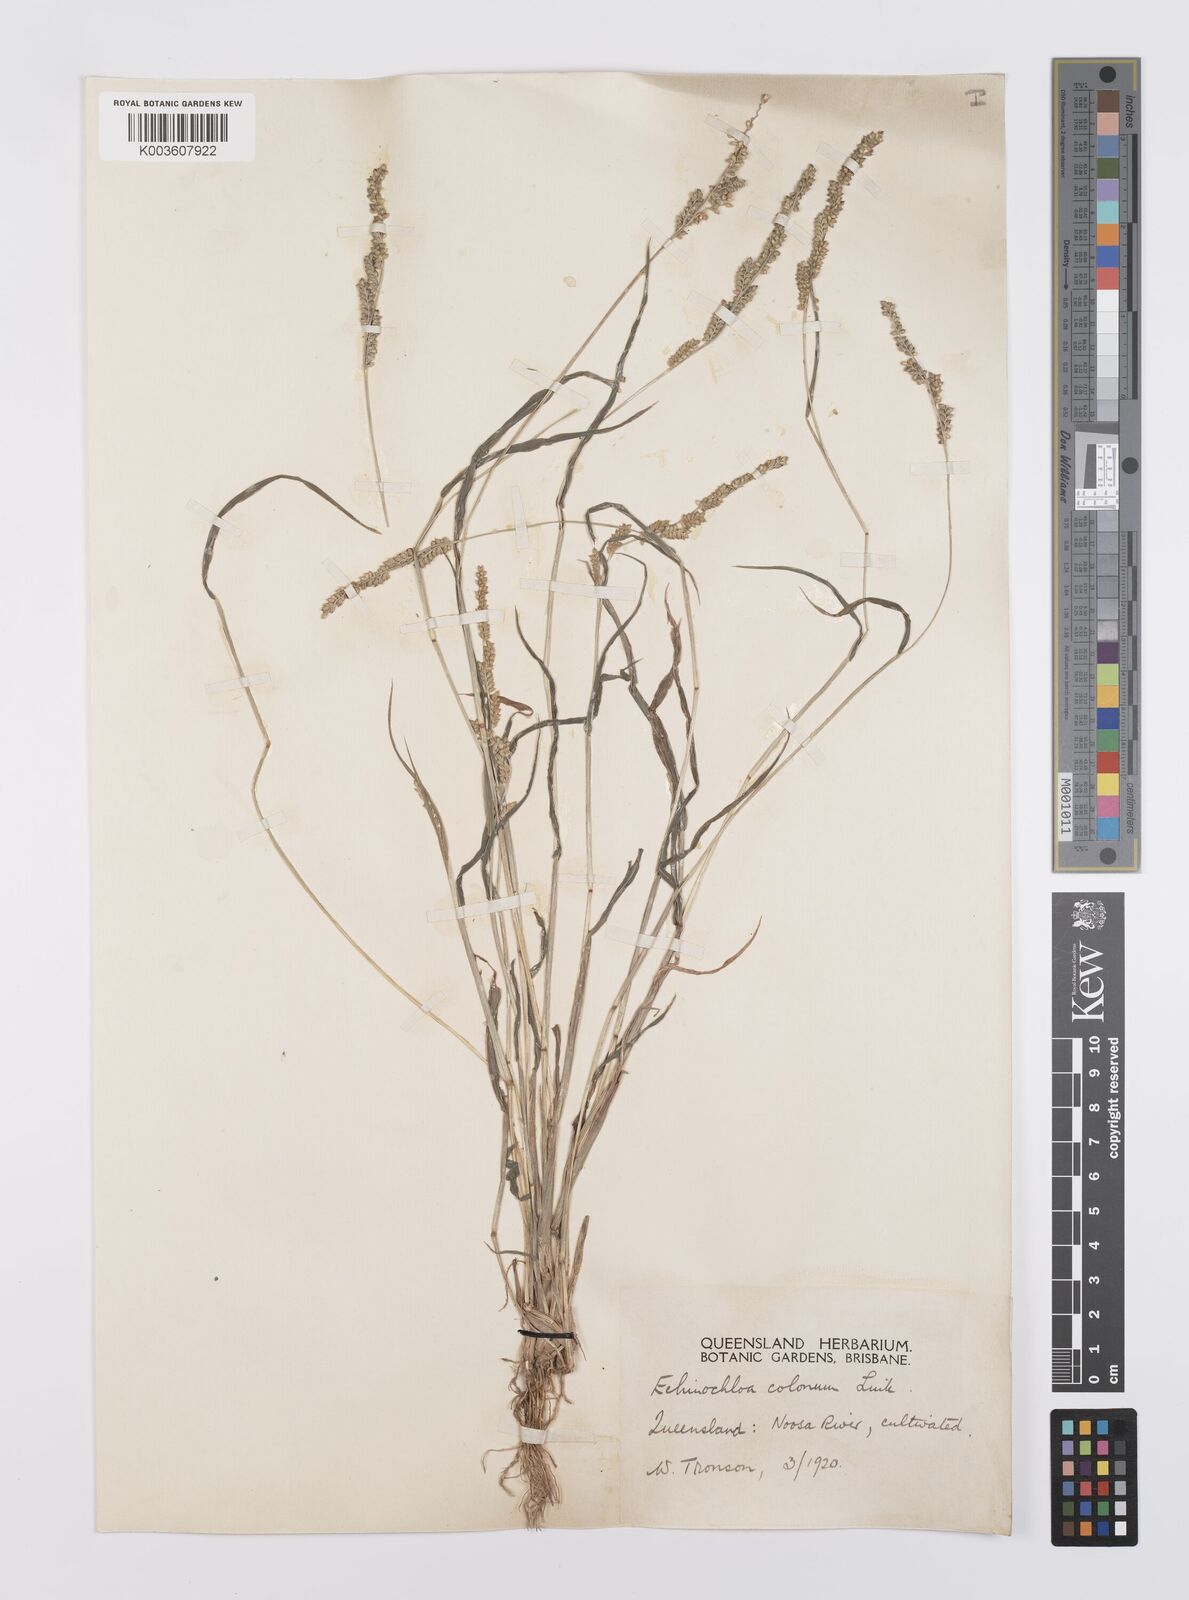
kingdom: Plantae
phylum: Tracheophyta
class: Liliopsida
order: Poales
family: Poaceae
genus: Echinochloa
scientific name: Echinochloa colonum
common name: Jungle rice
